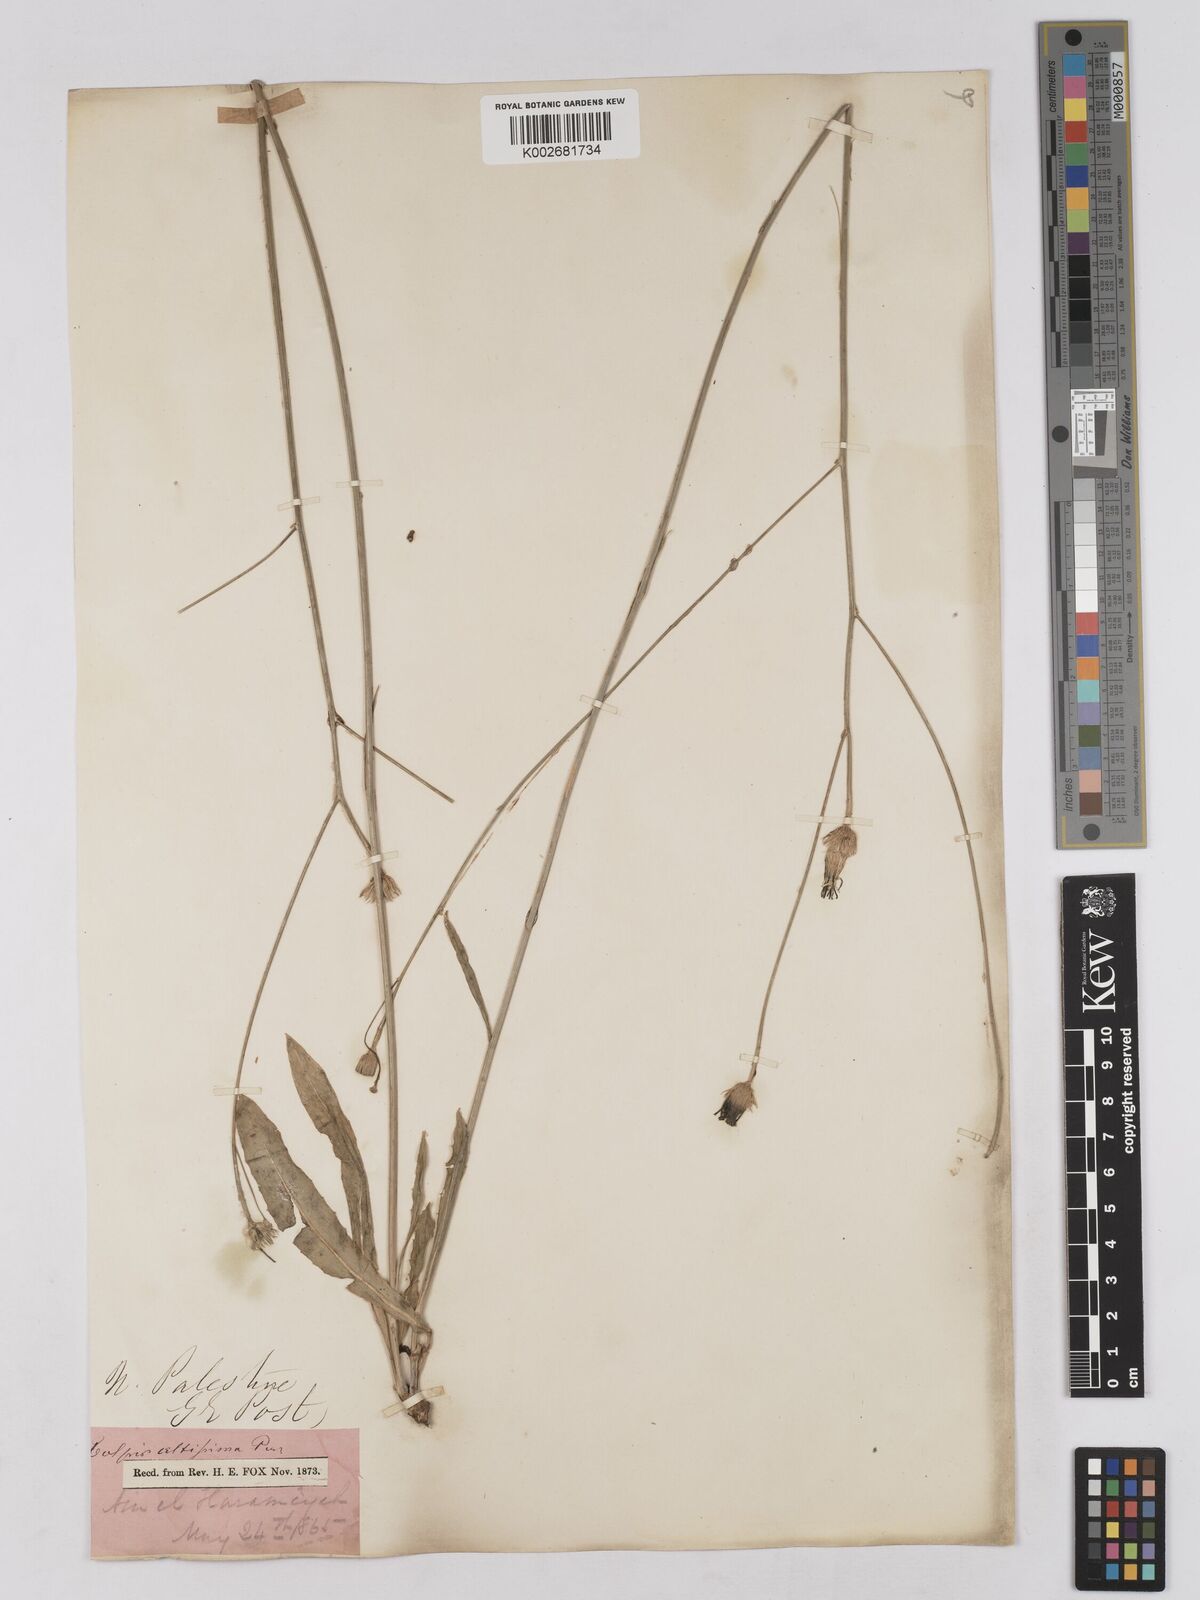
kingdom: Plantae
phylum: Tracheophyta
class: Magnoliopsida
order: Asterales
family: Asteraceae
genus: Tolpis
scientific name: Tolpis virgata
